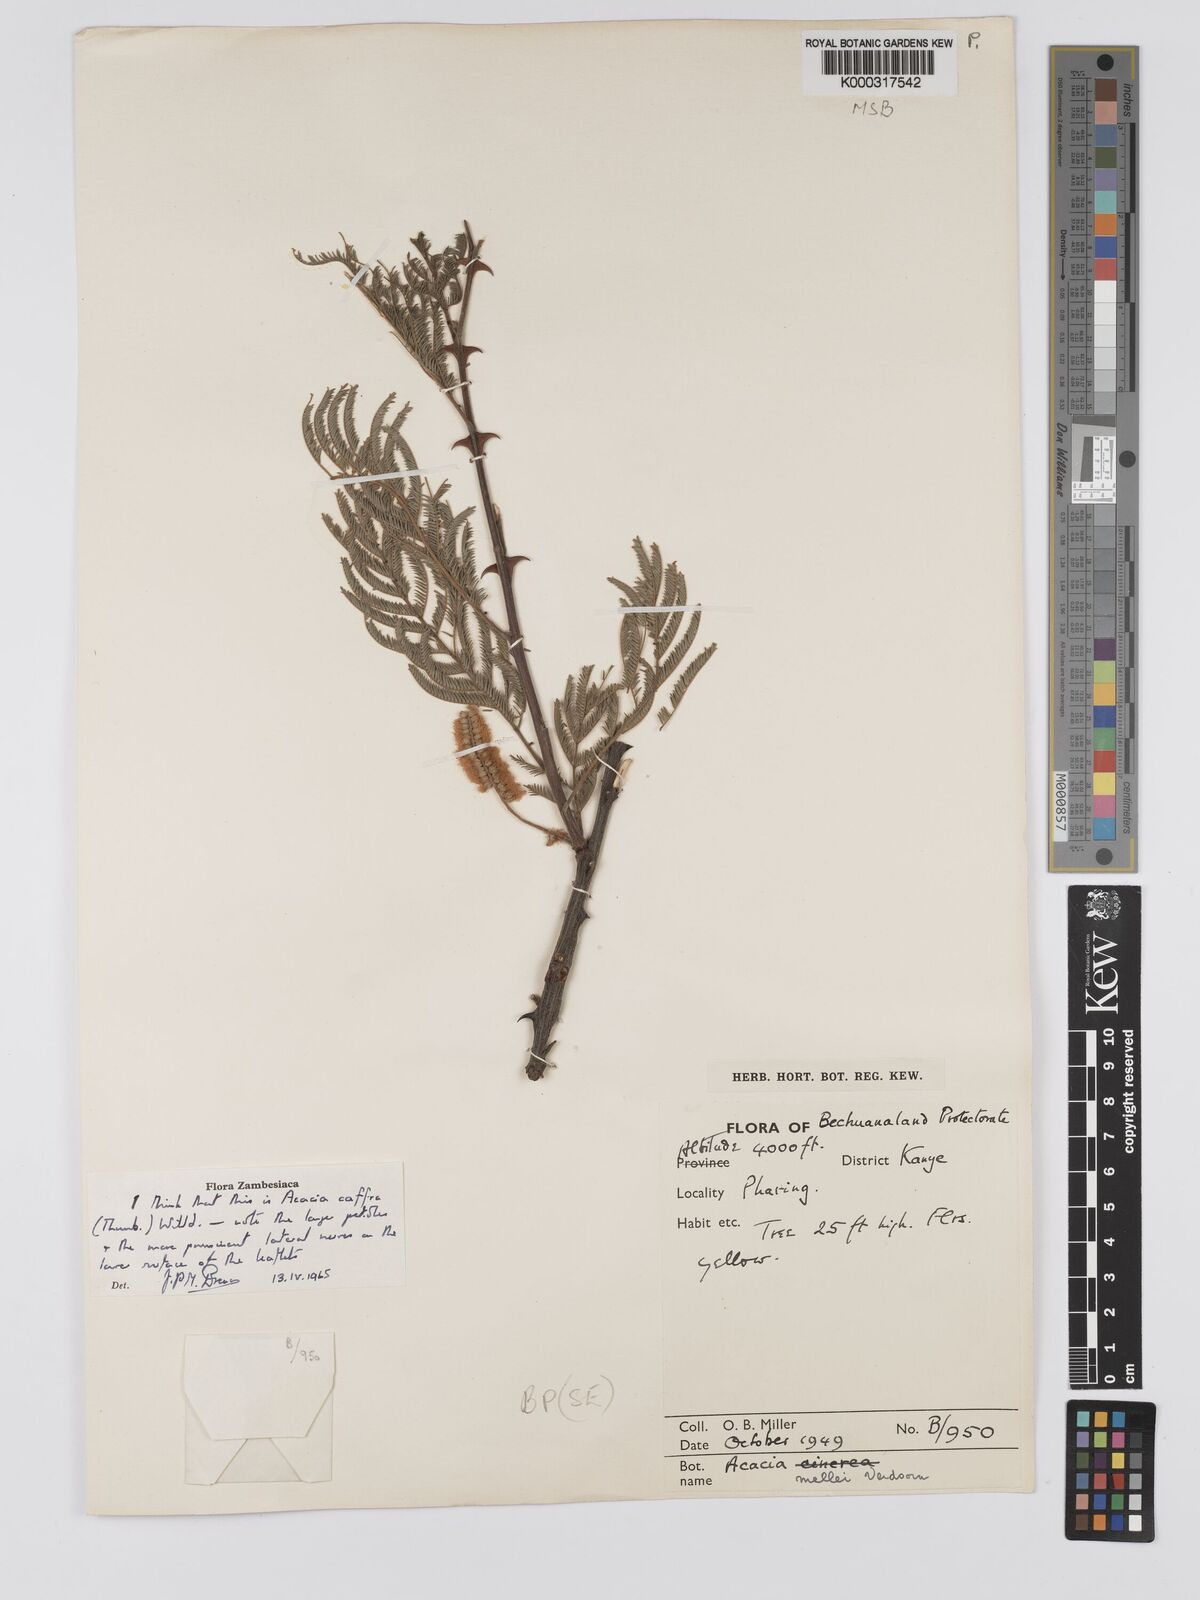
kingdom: Plantae
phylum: Tracheophyta
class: Magnoliopsida
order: Fabales
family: Fabaceae
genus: Senegalia
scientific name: Senegalia caffra
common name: Cat thorn
